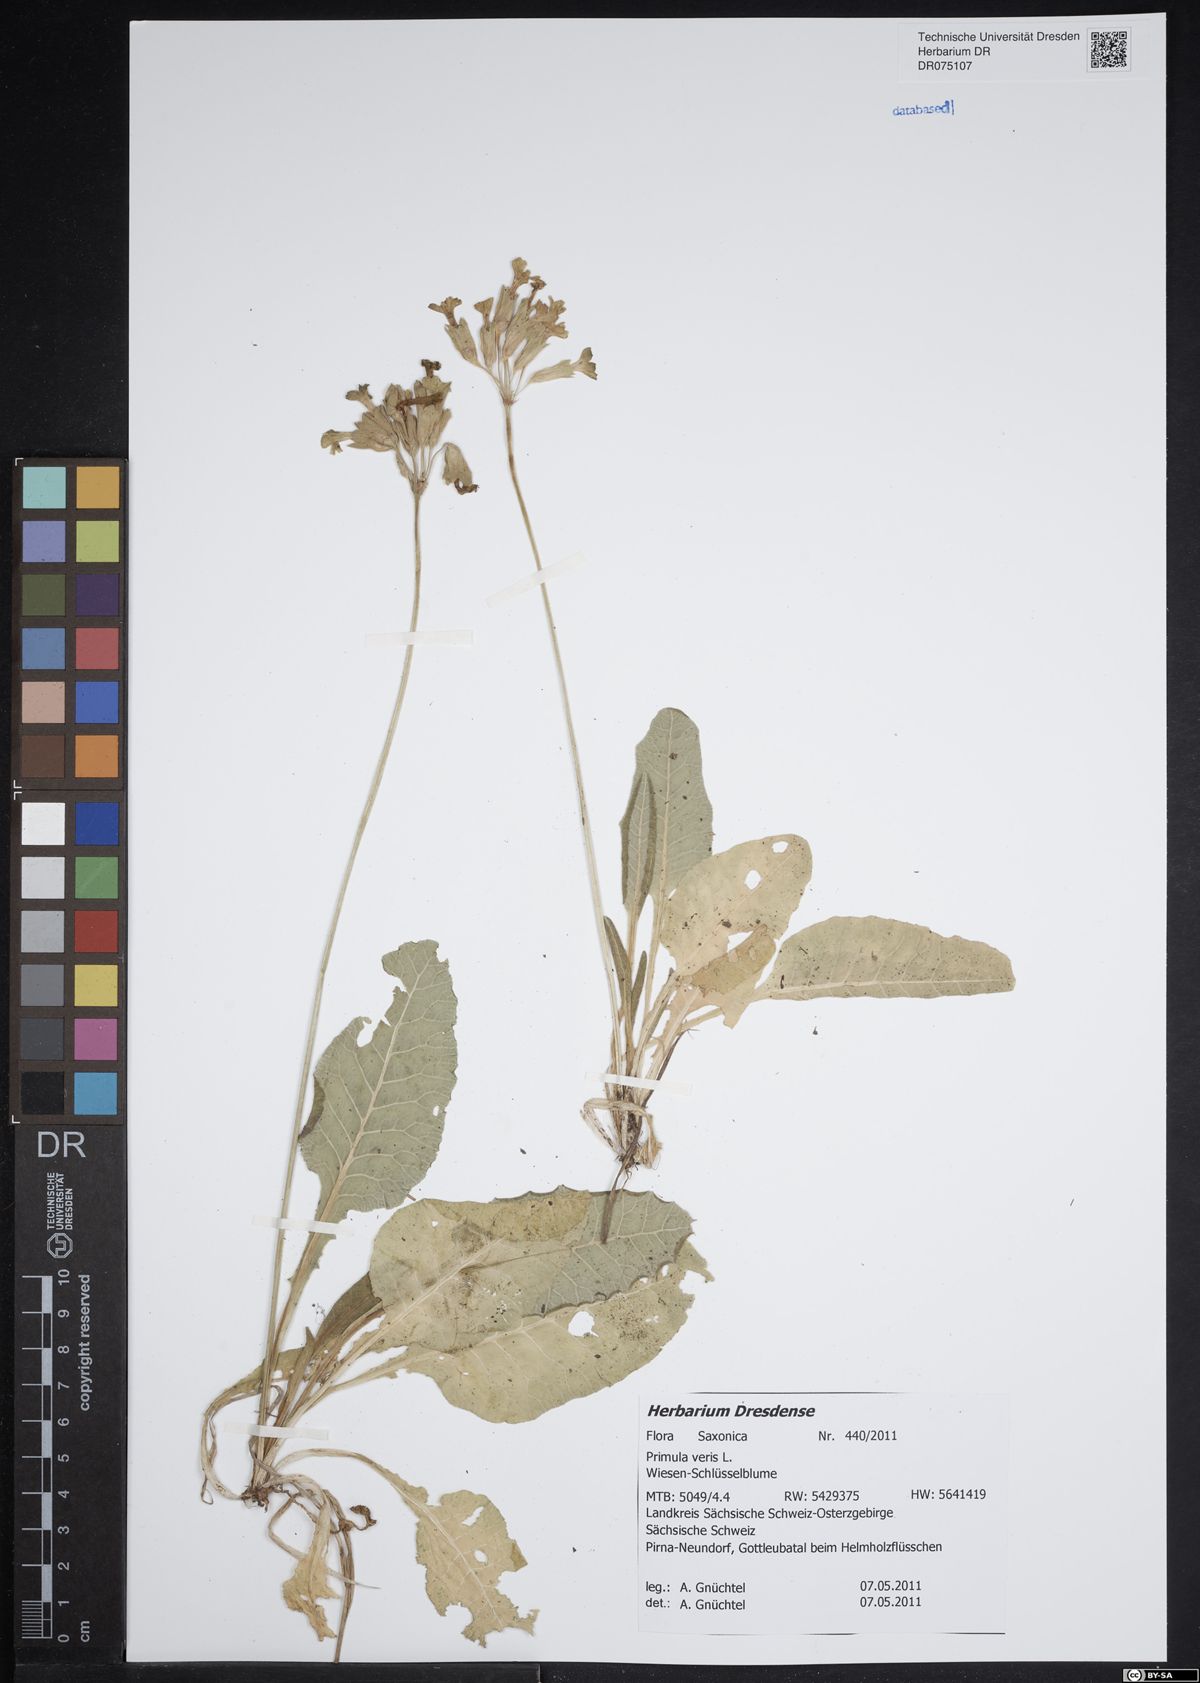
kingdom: Plantae
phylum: Tracheophyta
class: Magnoliopsida
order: Ericales
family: Primulaceae
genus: Primula
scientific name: Primula veris
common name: Cowslip
